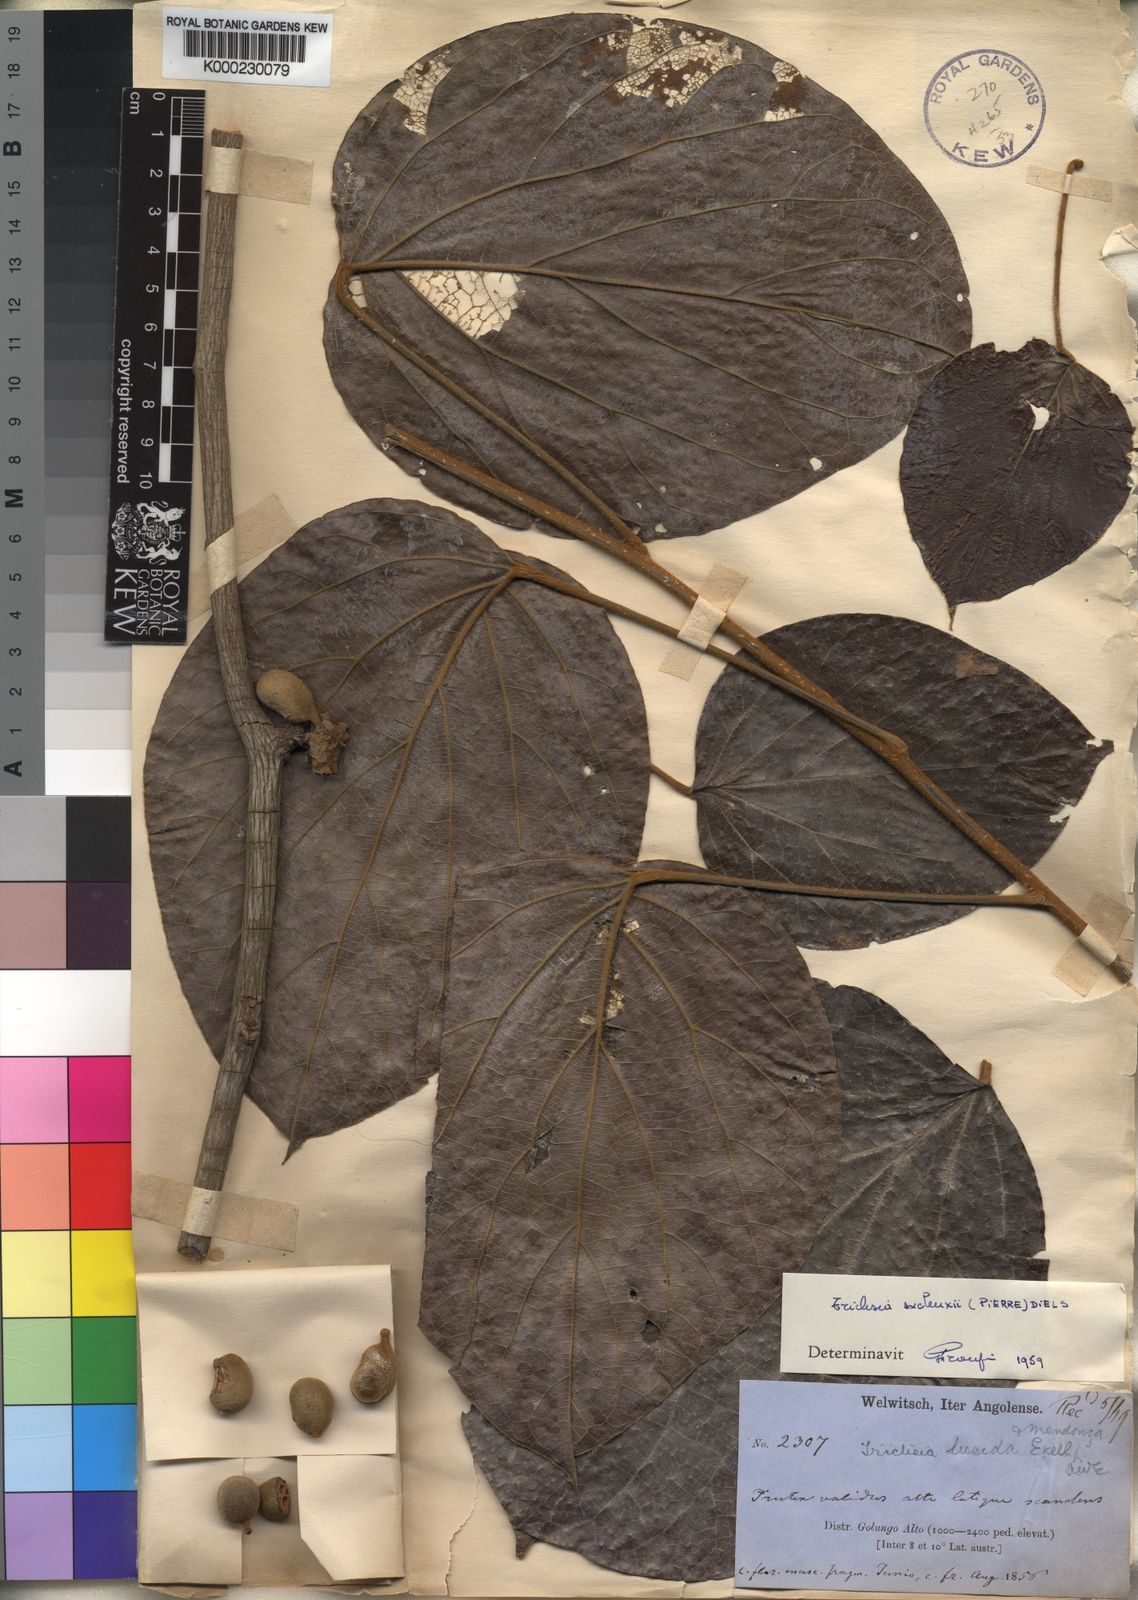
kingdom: Plantae
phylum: Tracheophyta
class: Magnoliopsida
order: Ranunculales
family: Menispermaceae
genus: Triclisia
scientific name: Triclisia
